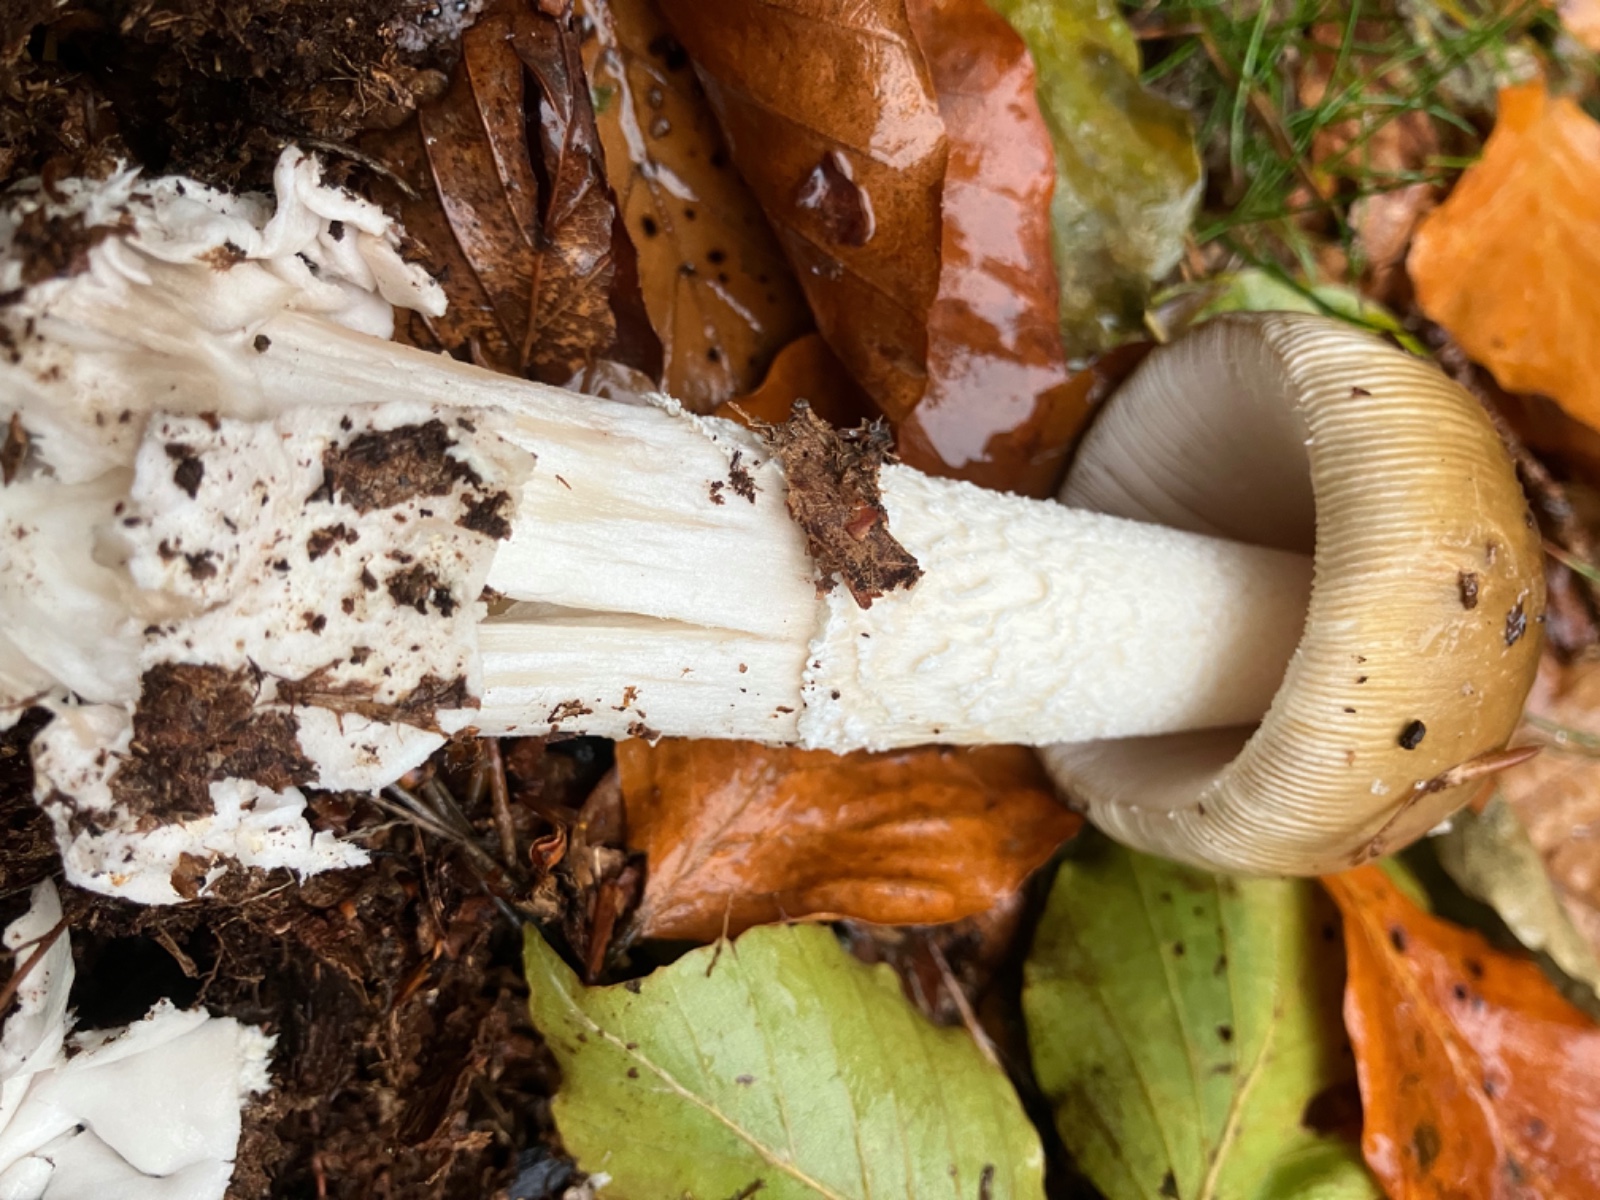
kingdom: Fungi
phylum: Basidiomycota
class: Agaricomycetes
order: Agaricales
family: Amanitaceae
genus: Amanita
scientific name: Amanita
